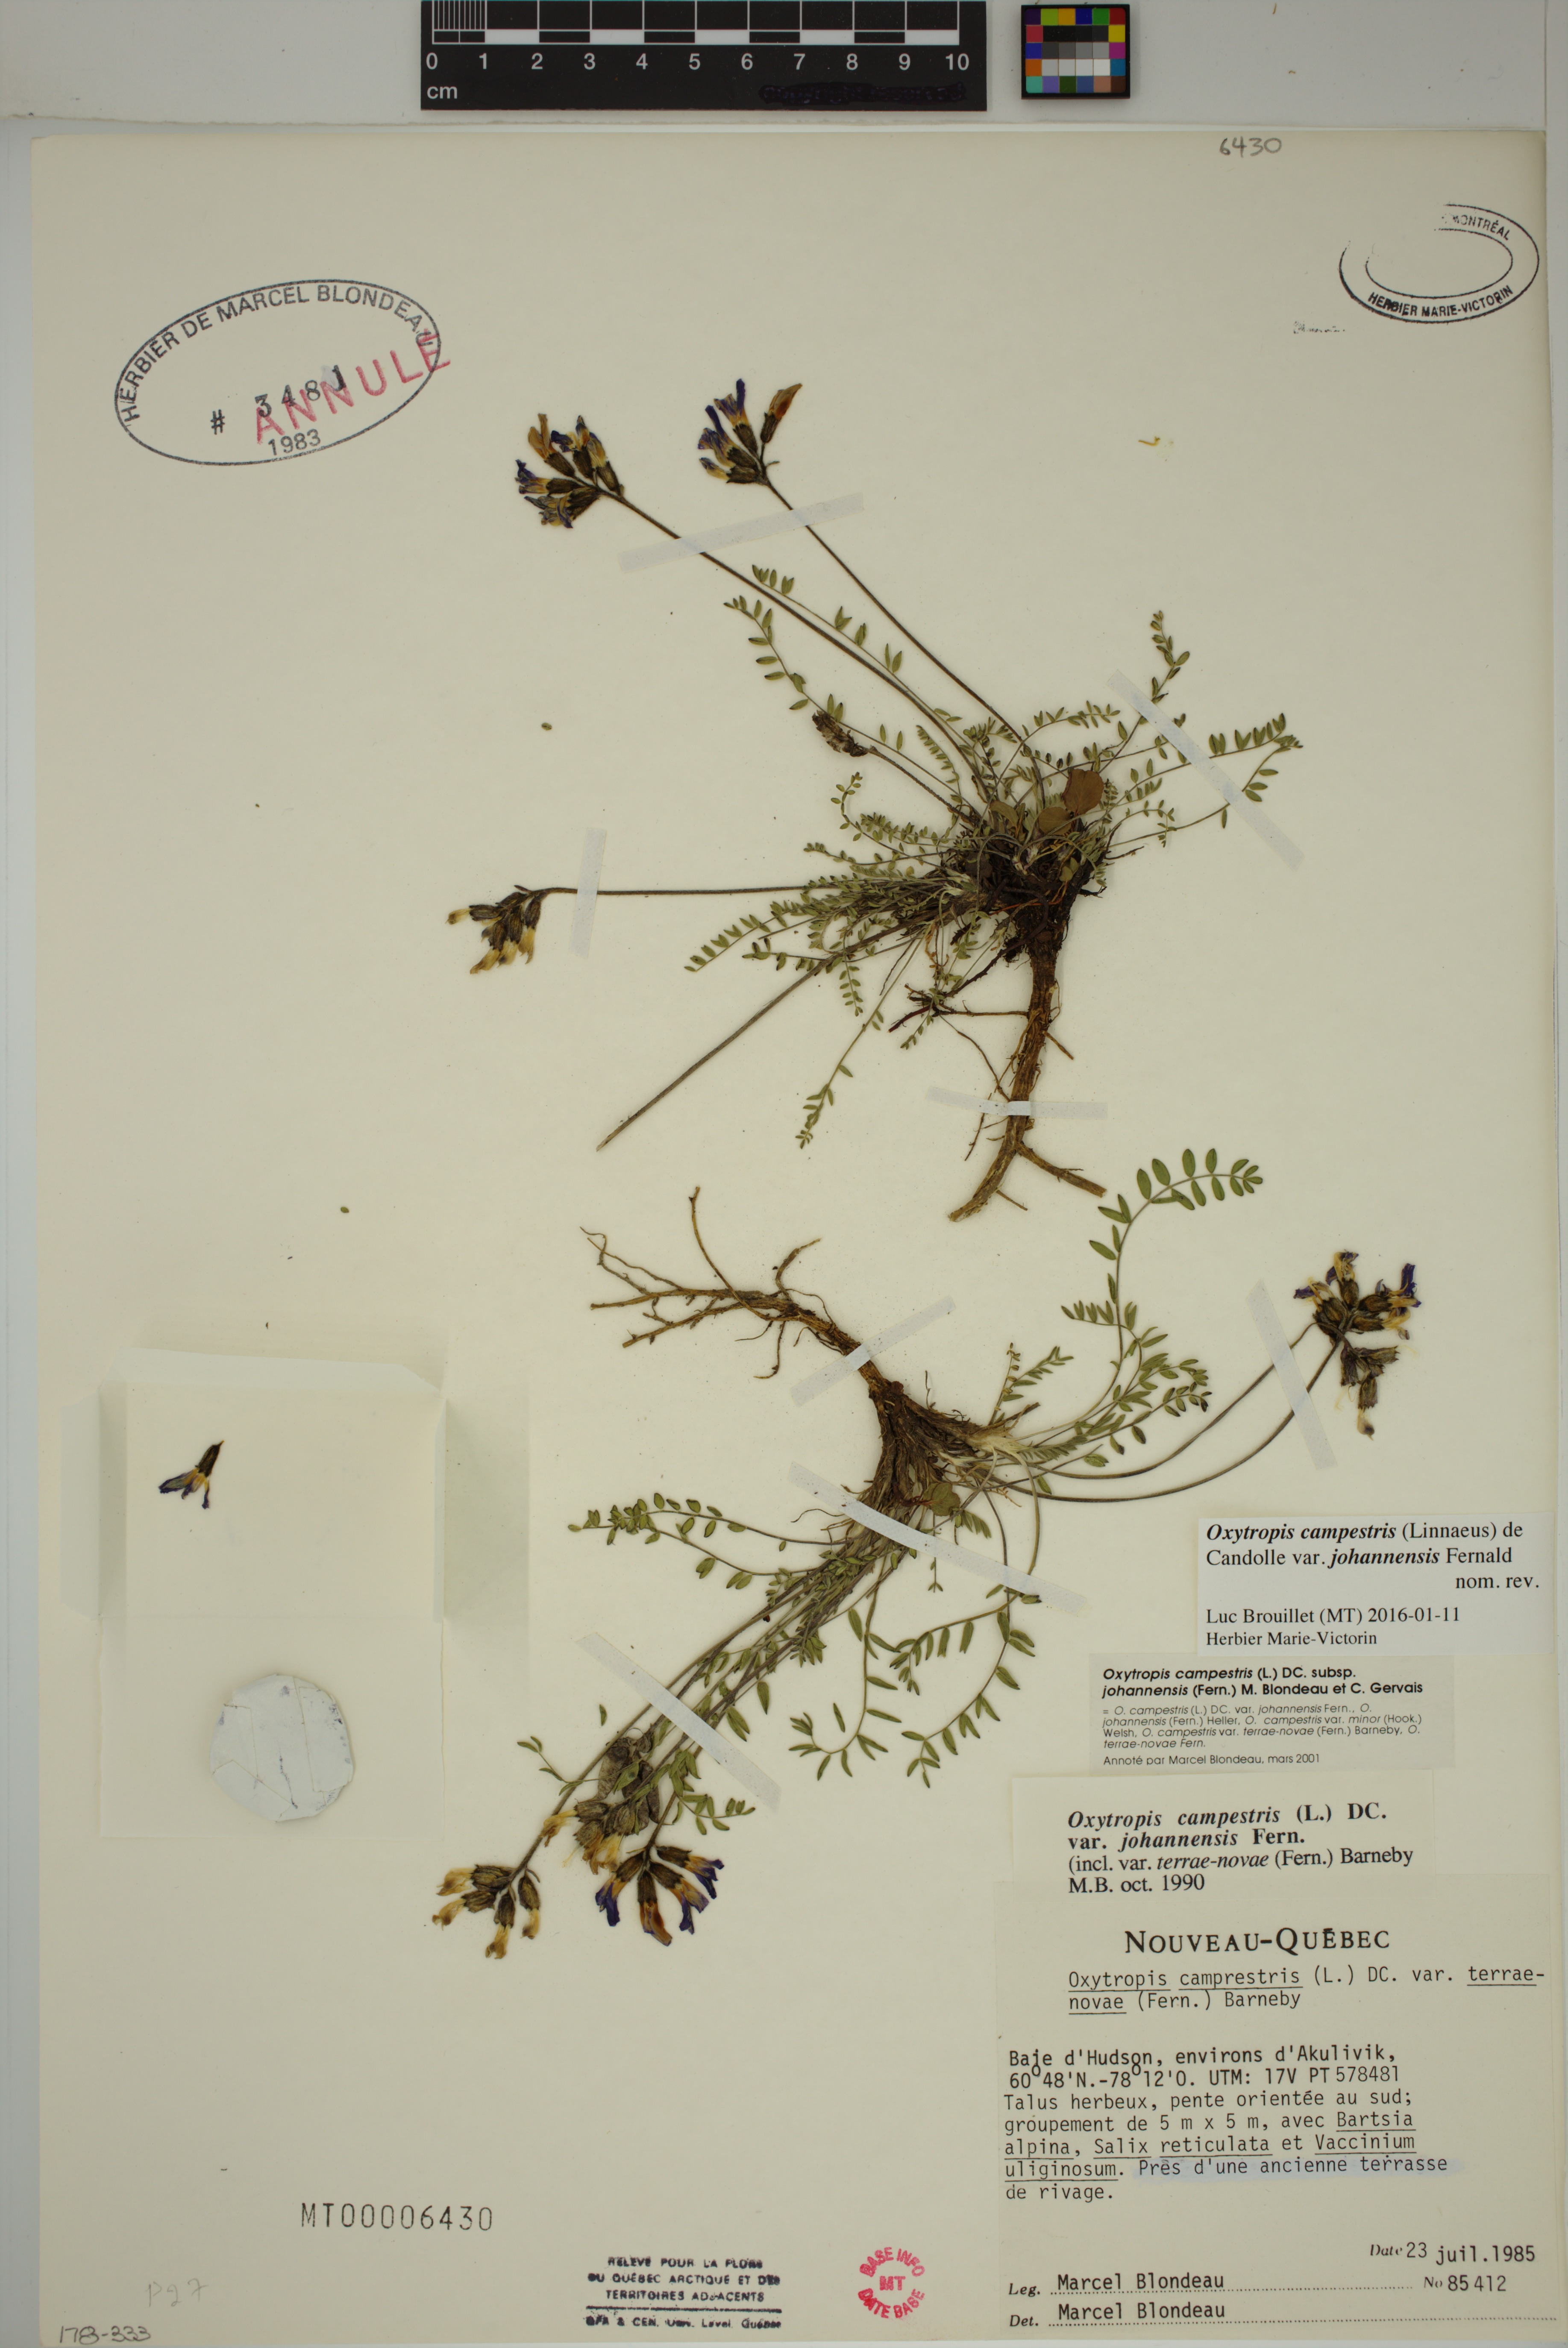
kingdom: Plantae
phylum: Tracheophyta
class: Magnoliopsida
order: Fabales
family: Fabaceae
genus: Oxytropis
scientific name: Oxytropis campestris
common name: Field locoweed
